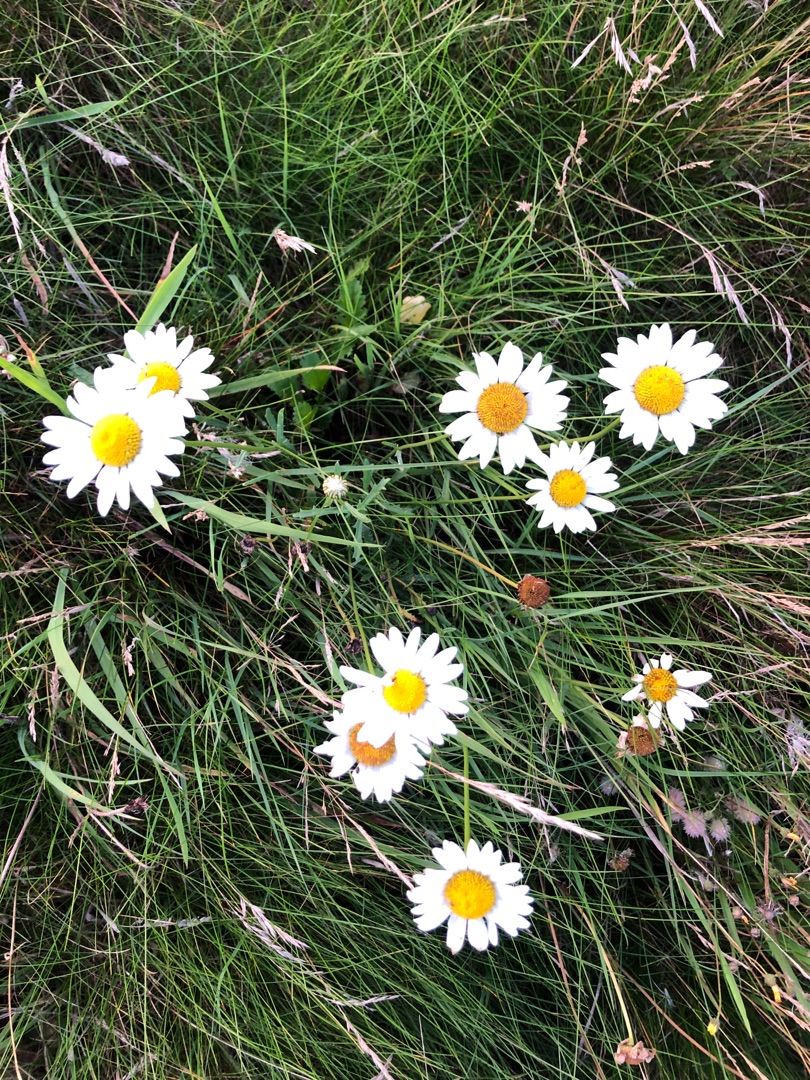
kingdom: Plantae
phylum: Tracheophyta
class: Magnoliopsida
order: Asterales
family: Asteraceae
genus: Leucanthemum
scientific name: Leucanthemum vulgare
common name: Hvid okseøje
